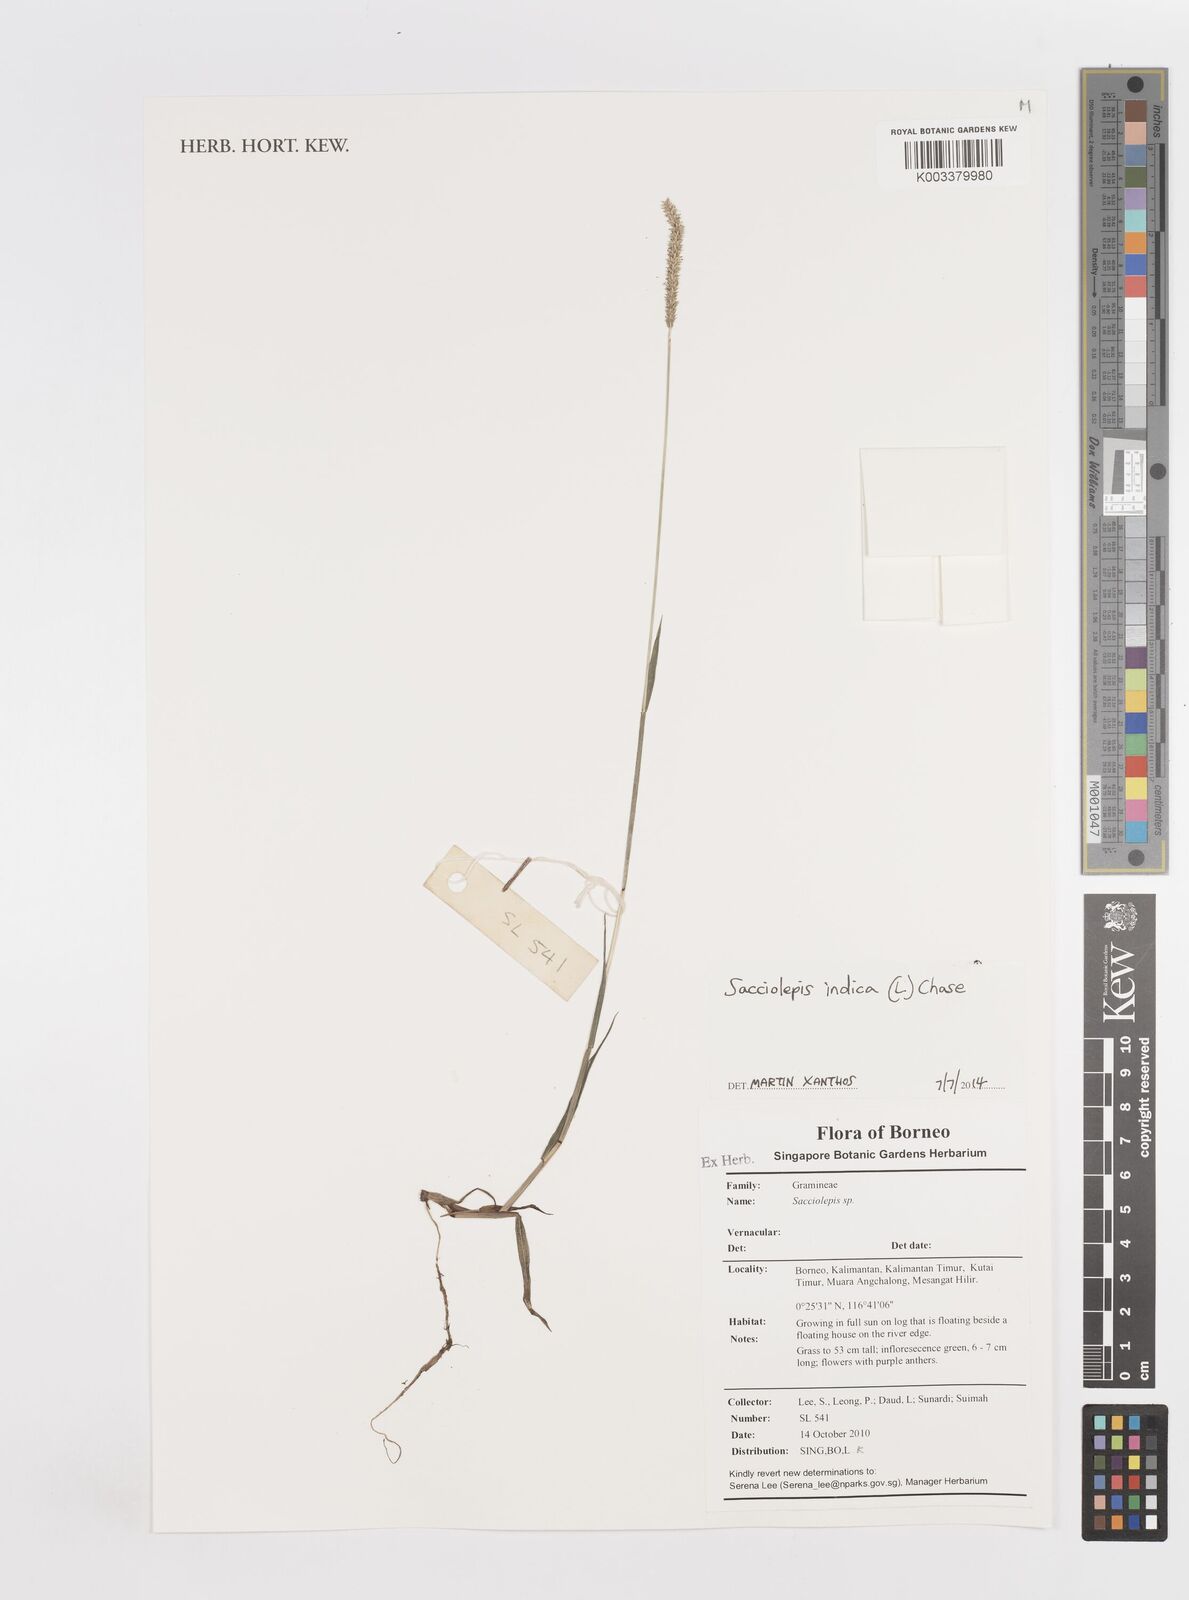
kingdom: Plantae
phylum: Tracheophyta
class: Liliopsida
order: Poales
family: Poaceae
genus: Sacciolepis
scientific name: Sacciolepis indica
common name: Glenwoodgrass
